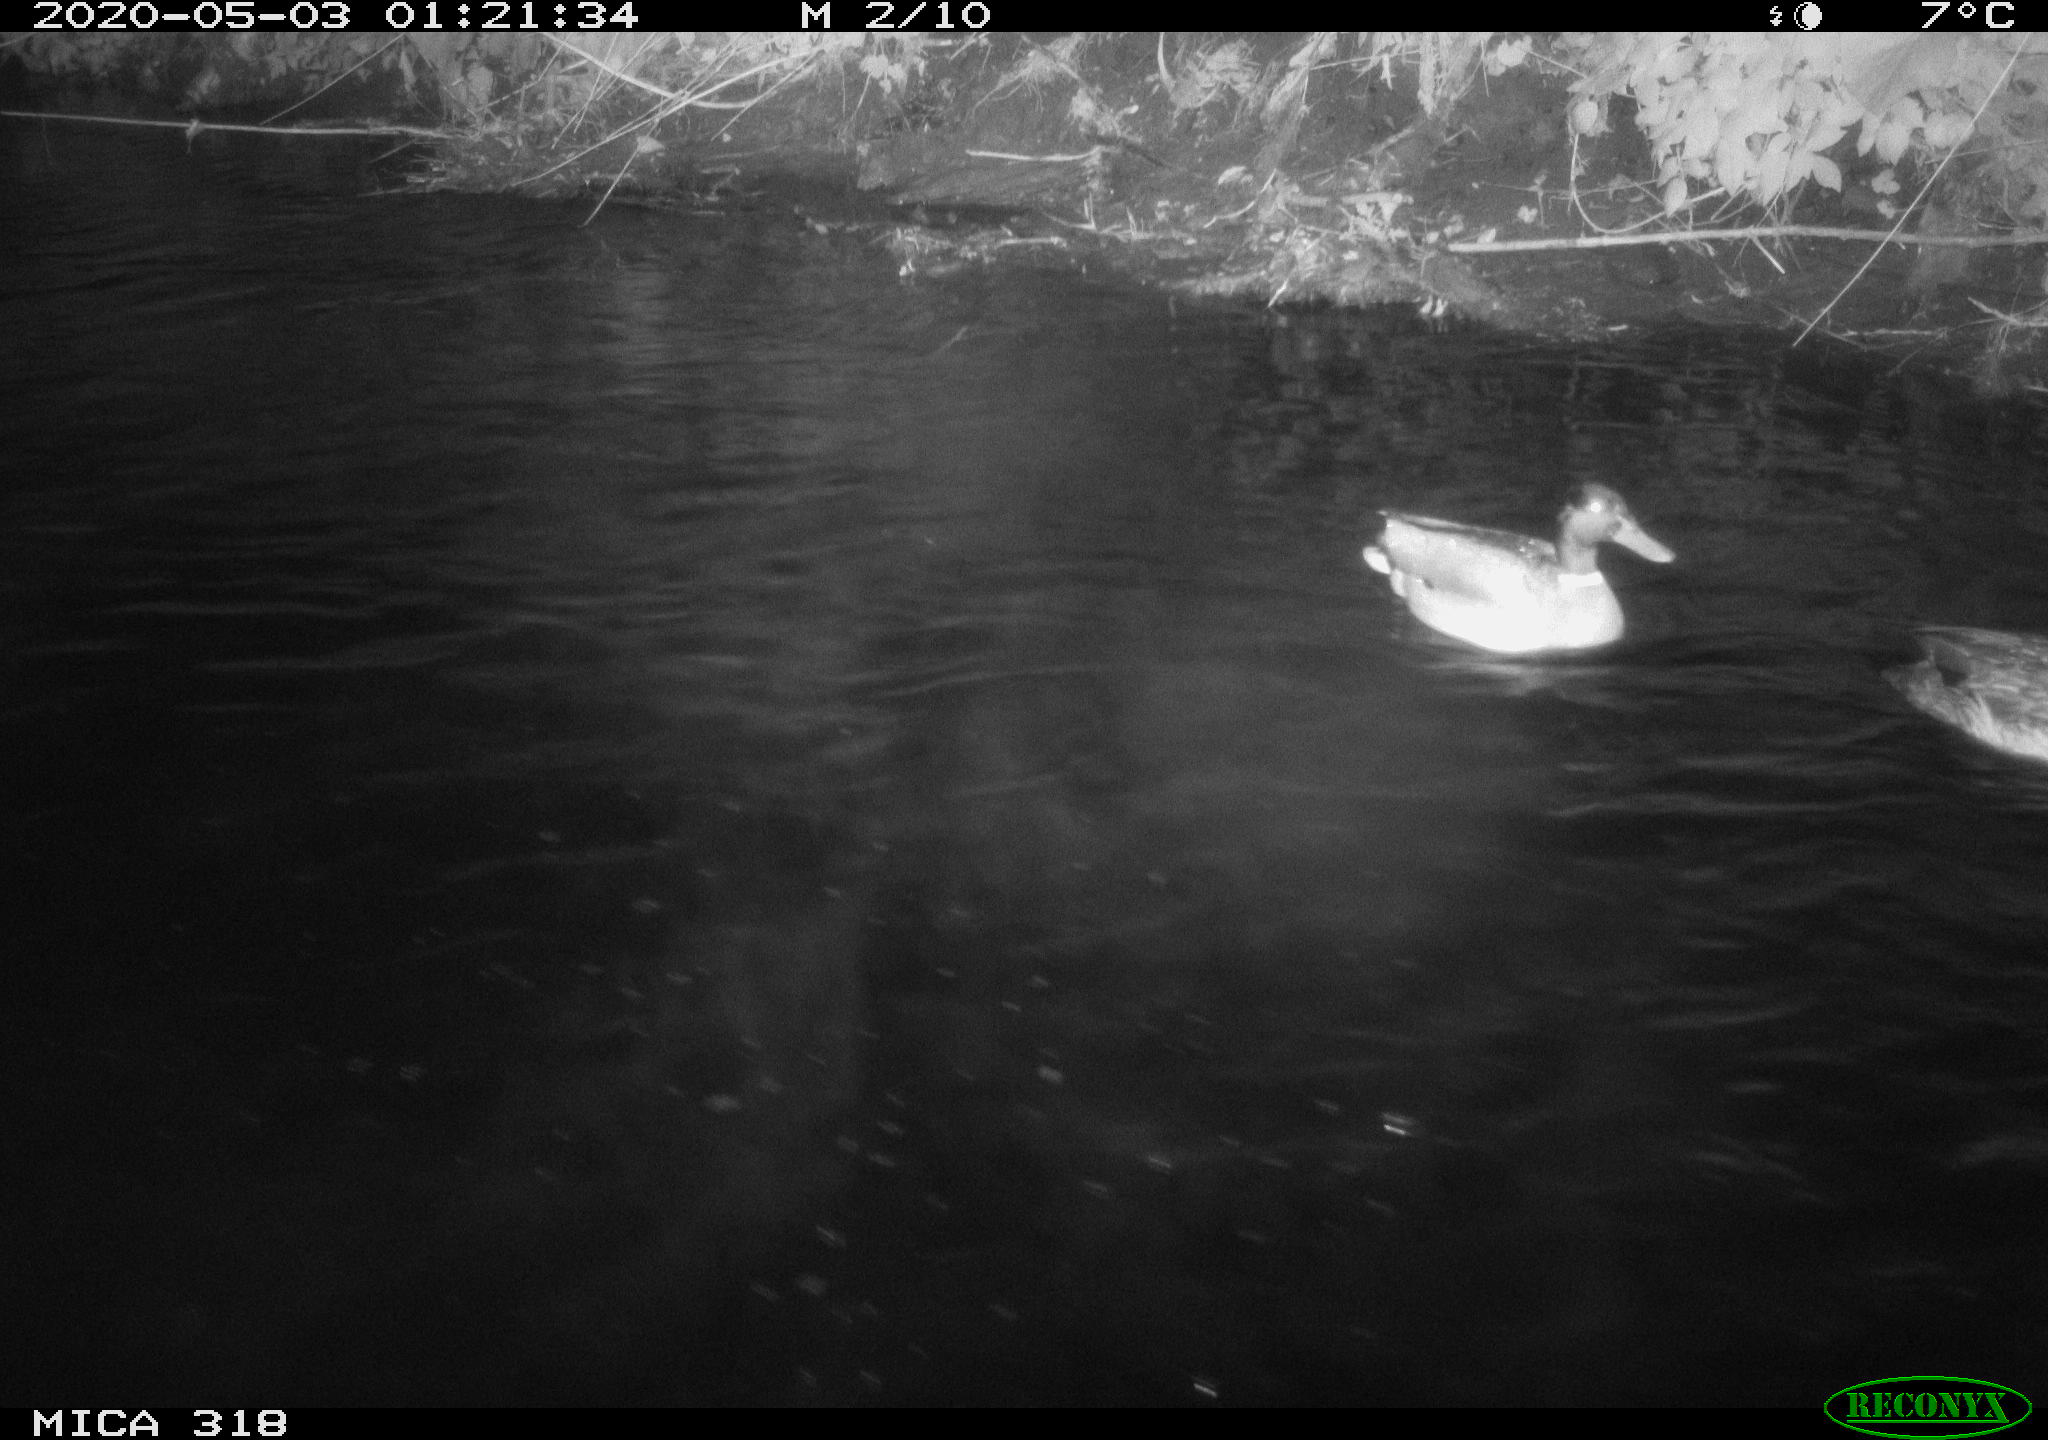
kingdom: Animalia
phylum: Chordata
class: Aves
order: Anseriformes
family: Anatidae
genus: Anas
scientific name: Anas platyrhynchos
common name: Mallard
